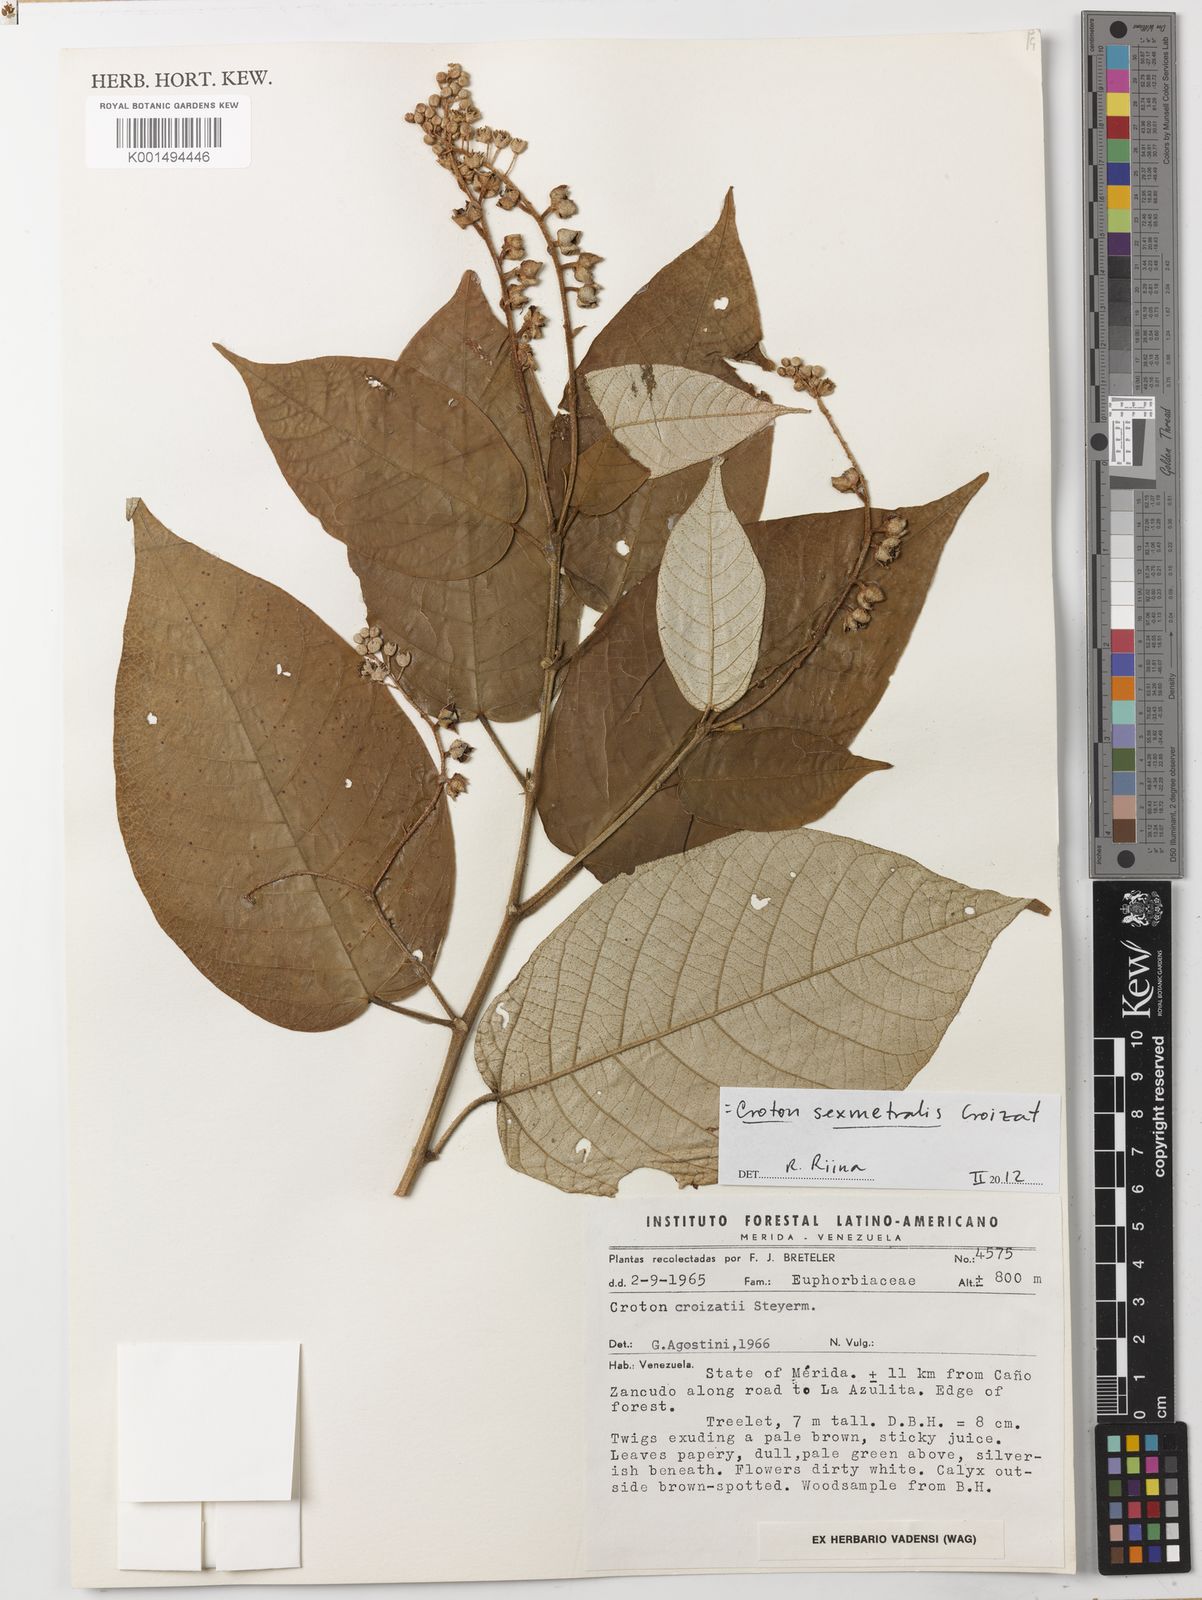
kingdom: Plantae
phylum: Tracheophyta
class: Magnoliopsida
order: Malpighiales
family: Euphorbiaceae
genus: Croton
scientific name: Croton sexmetralis
